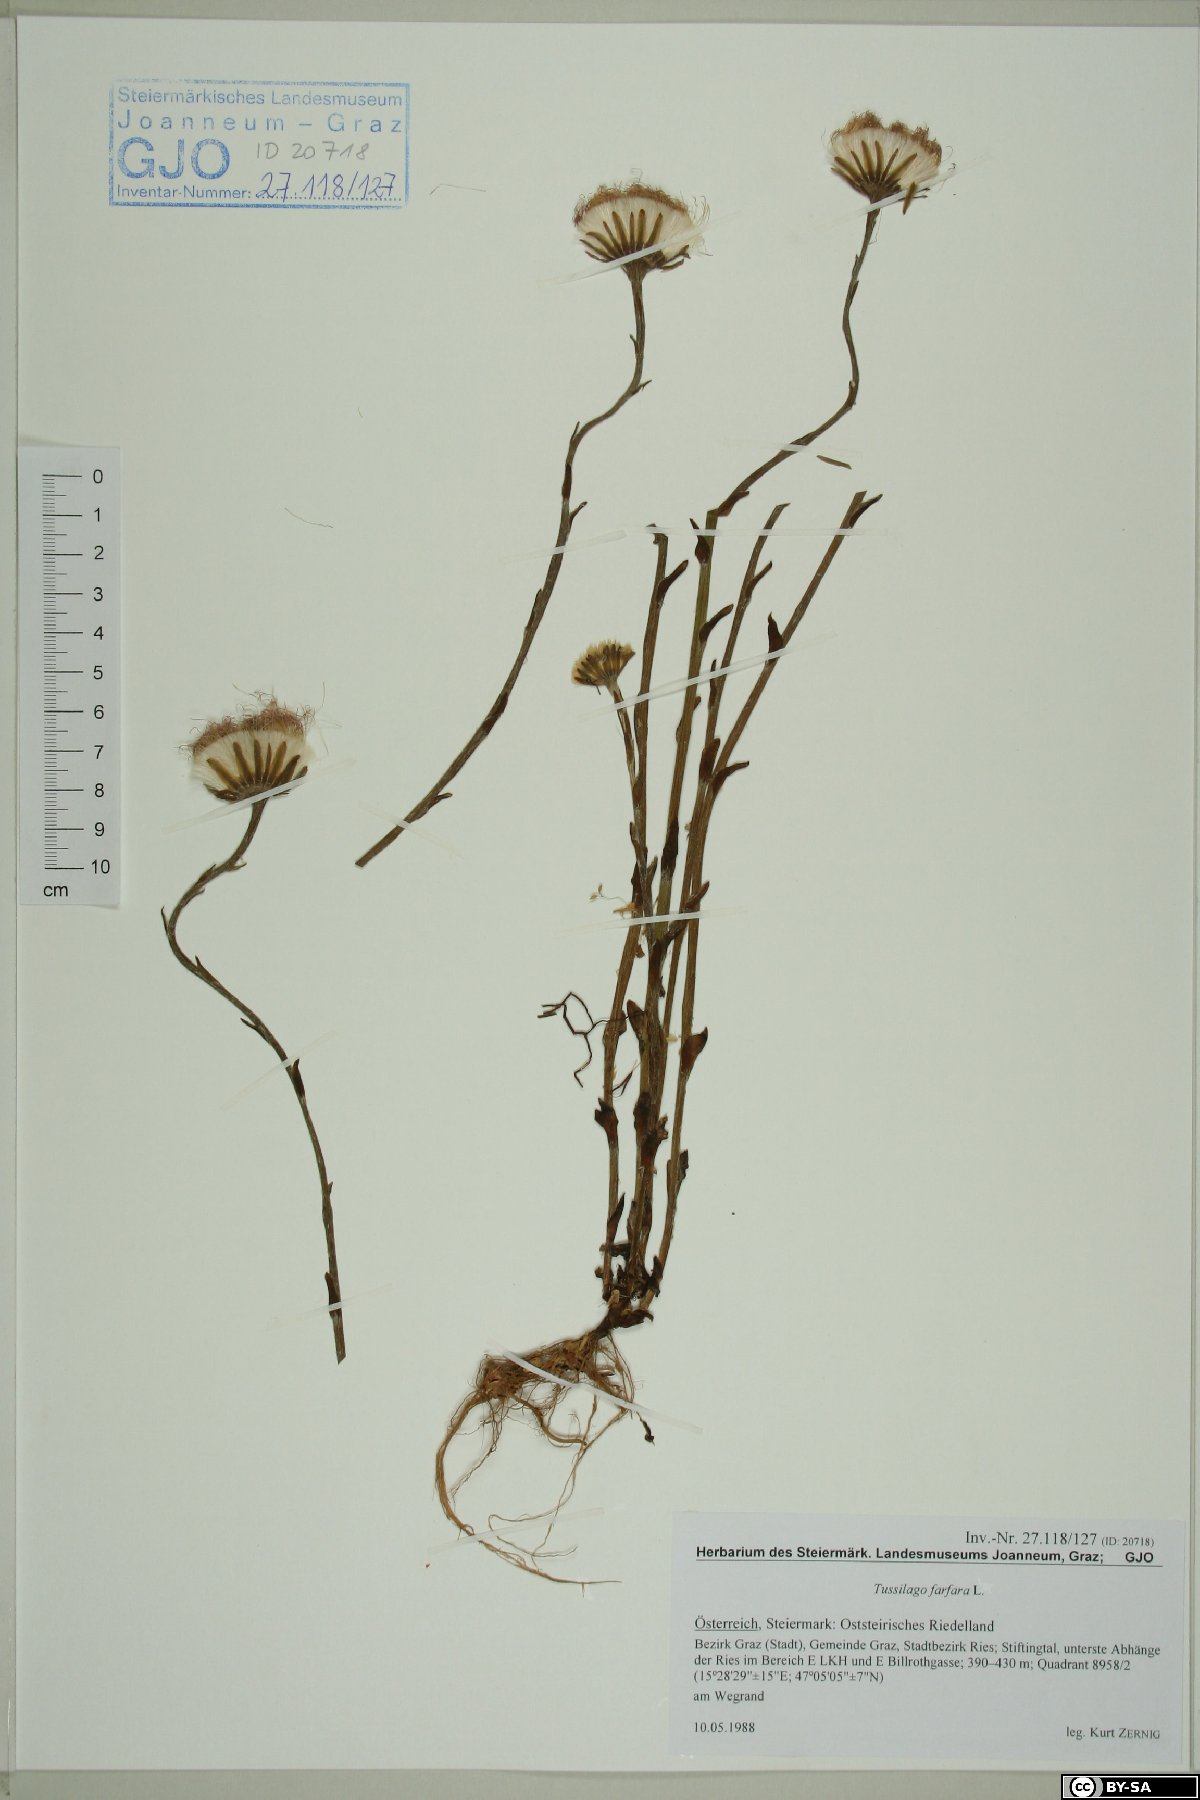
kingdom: Plantae
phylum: Tracheophyta
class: Magnoliopsida
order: Asterales
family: Asteraceae
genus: Tussilago
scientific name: Tussilago farfara
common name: Coltsfoot
